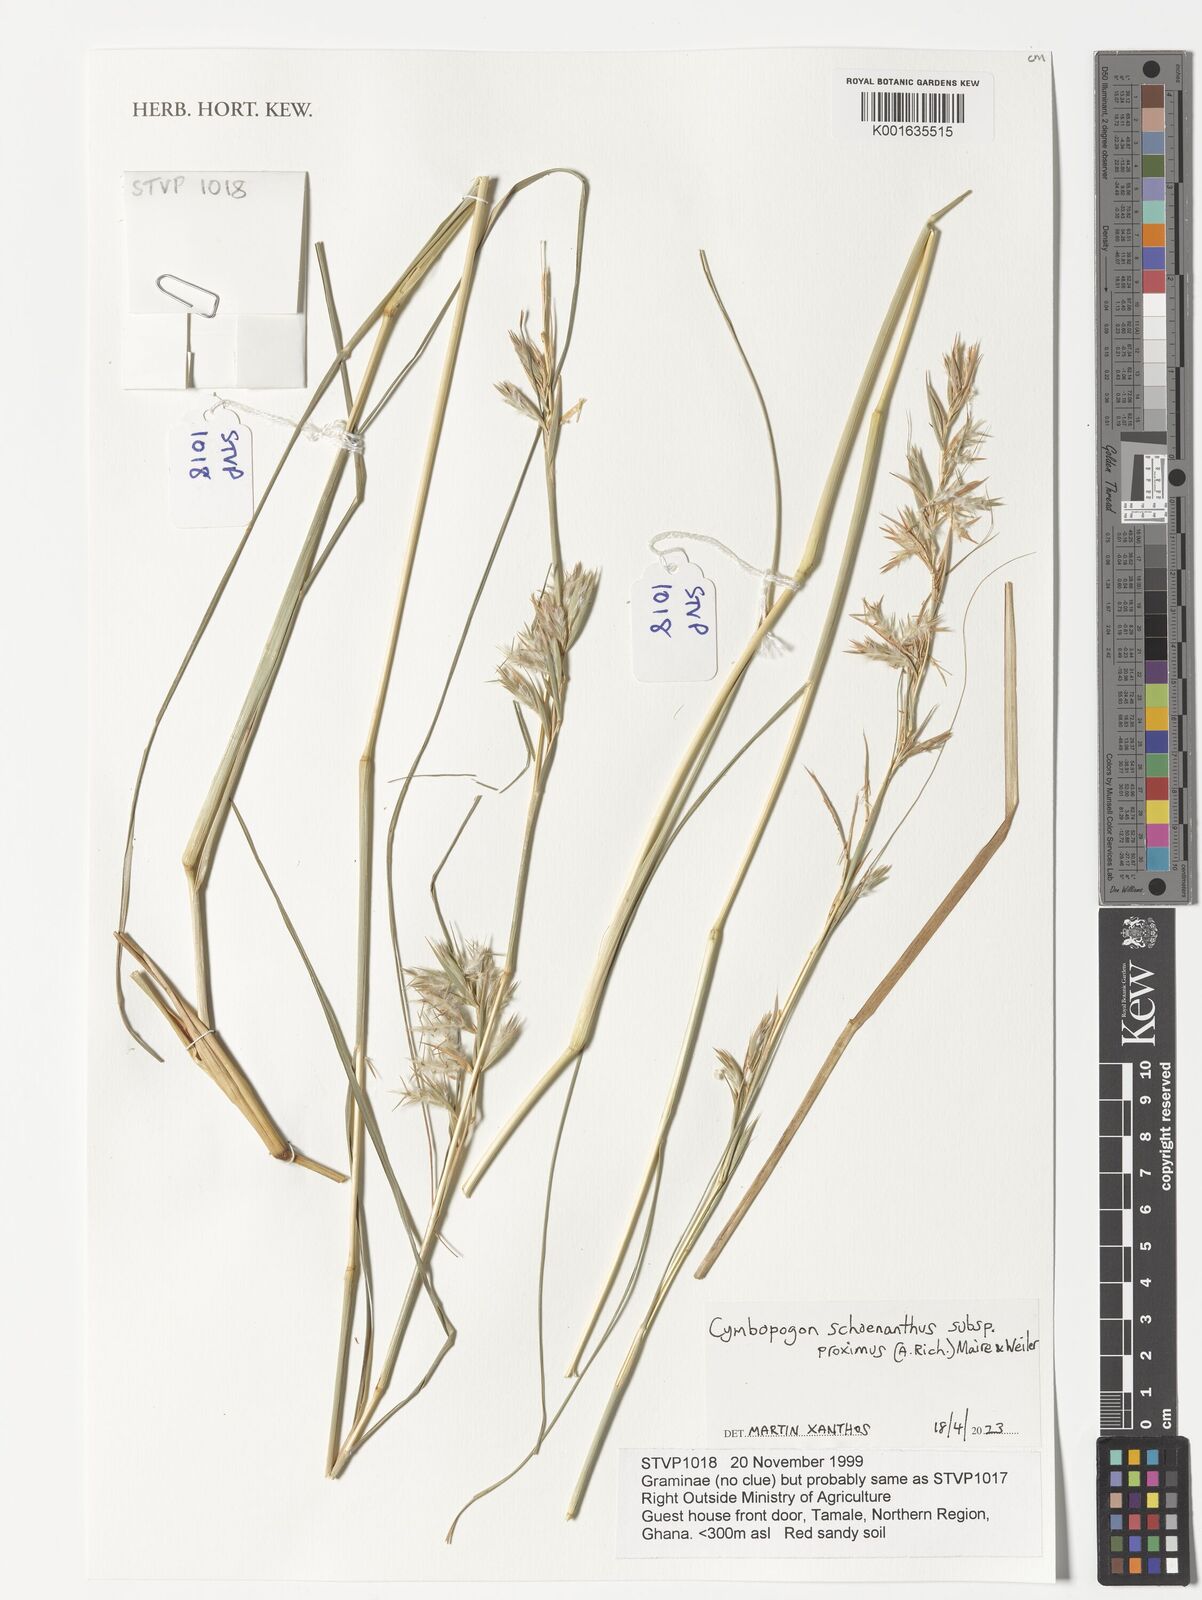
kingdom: Plantae
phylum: Tracheophyta
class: Liliopsida
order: Poales
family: Poaceae
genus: Cymbopogon
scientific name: Cymbopogon schoenanthus
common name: Geranium grass
